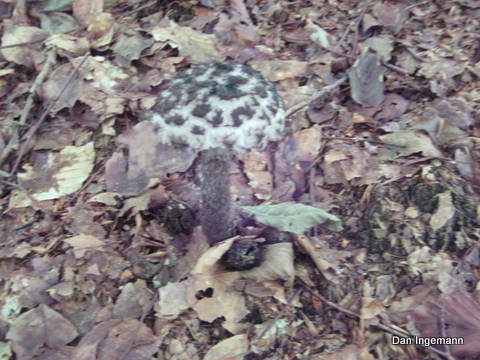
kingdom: Fungi
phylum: Basidiomycota
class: Agaricomycetes
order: Boletales
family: Boletaceae
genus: Strobilomyces
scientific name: Strobilomyces strobilaceus
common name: koglerørhat
